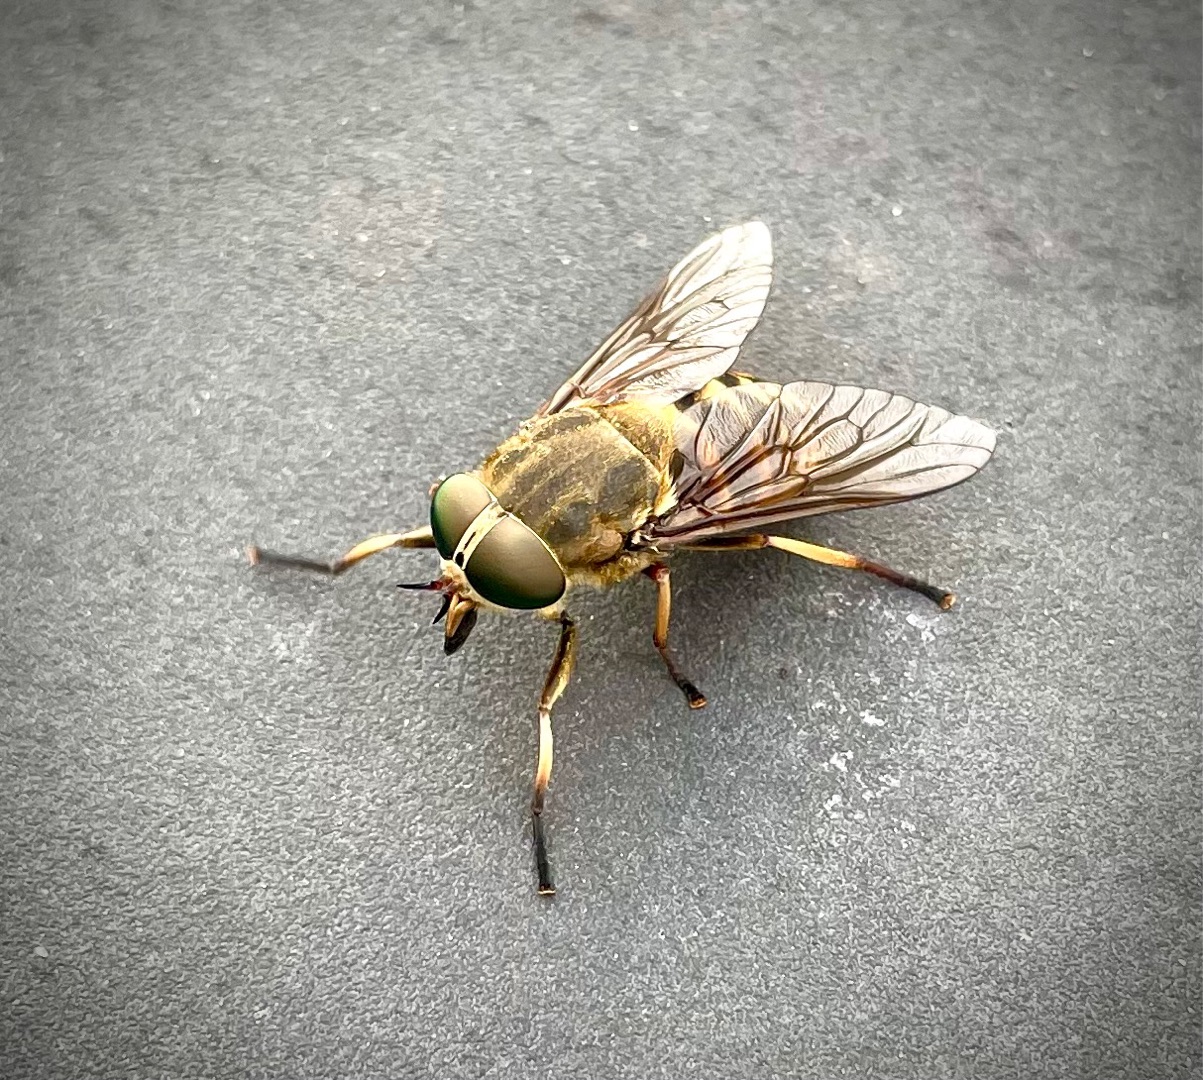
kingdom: Animalia
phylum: Arthropoda
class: Insecta
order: Diptera
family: Tabanidae
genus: Tabanus
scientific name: Tabanus sudeticus
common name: Hesteklæg
